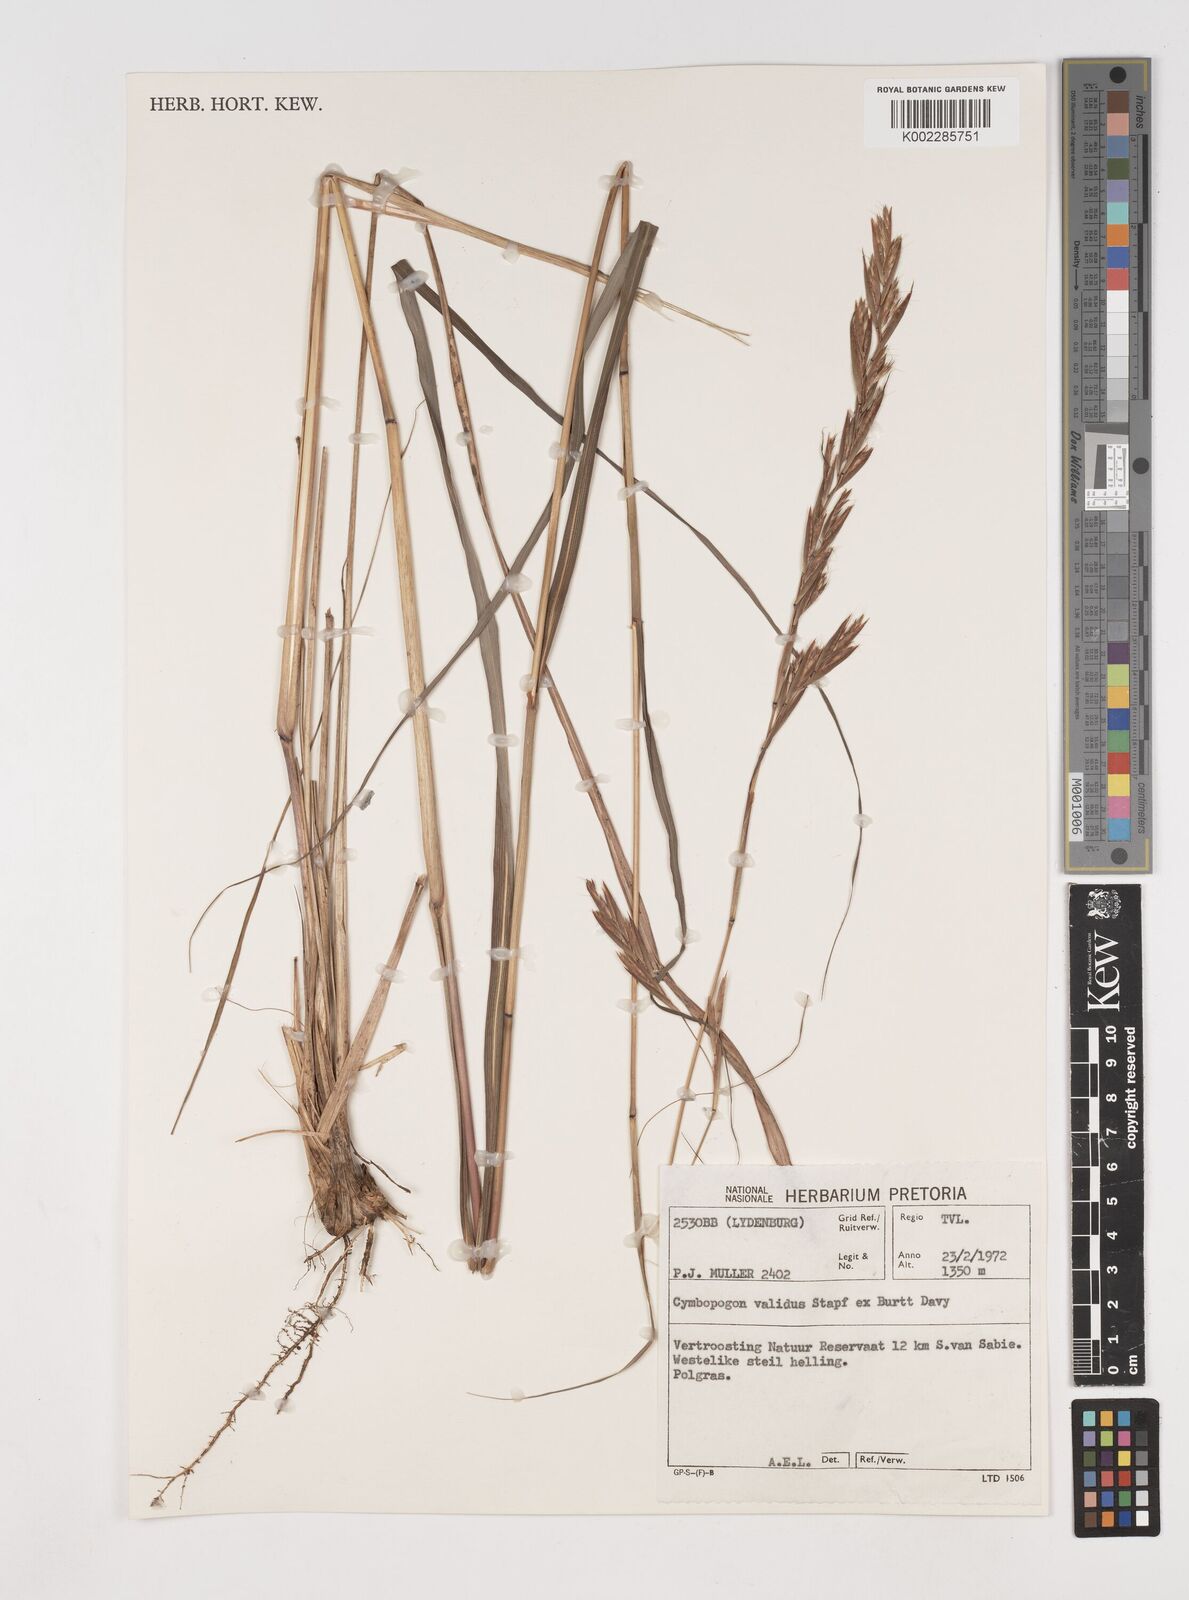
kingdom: Plantae
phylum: Tracheophyta
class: Liliopsida
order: Poales
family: Poaceae
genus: Cymbopogon
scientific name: Cymbopogon nardus
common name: Giant turpentine grass
